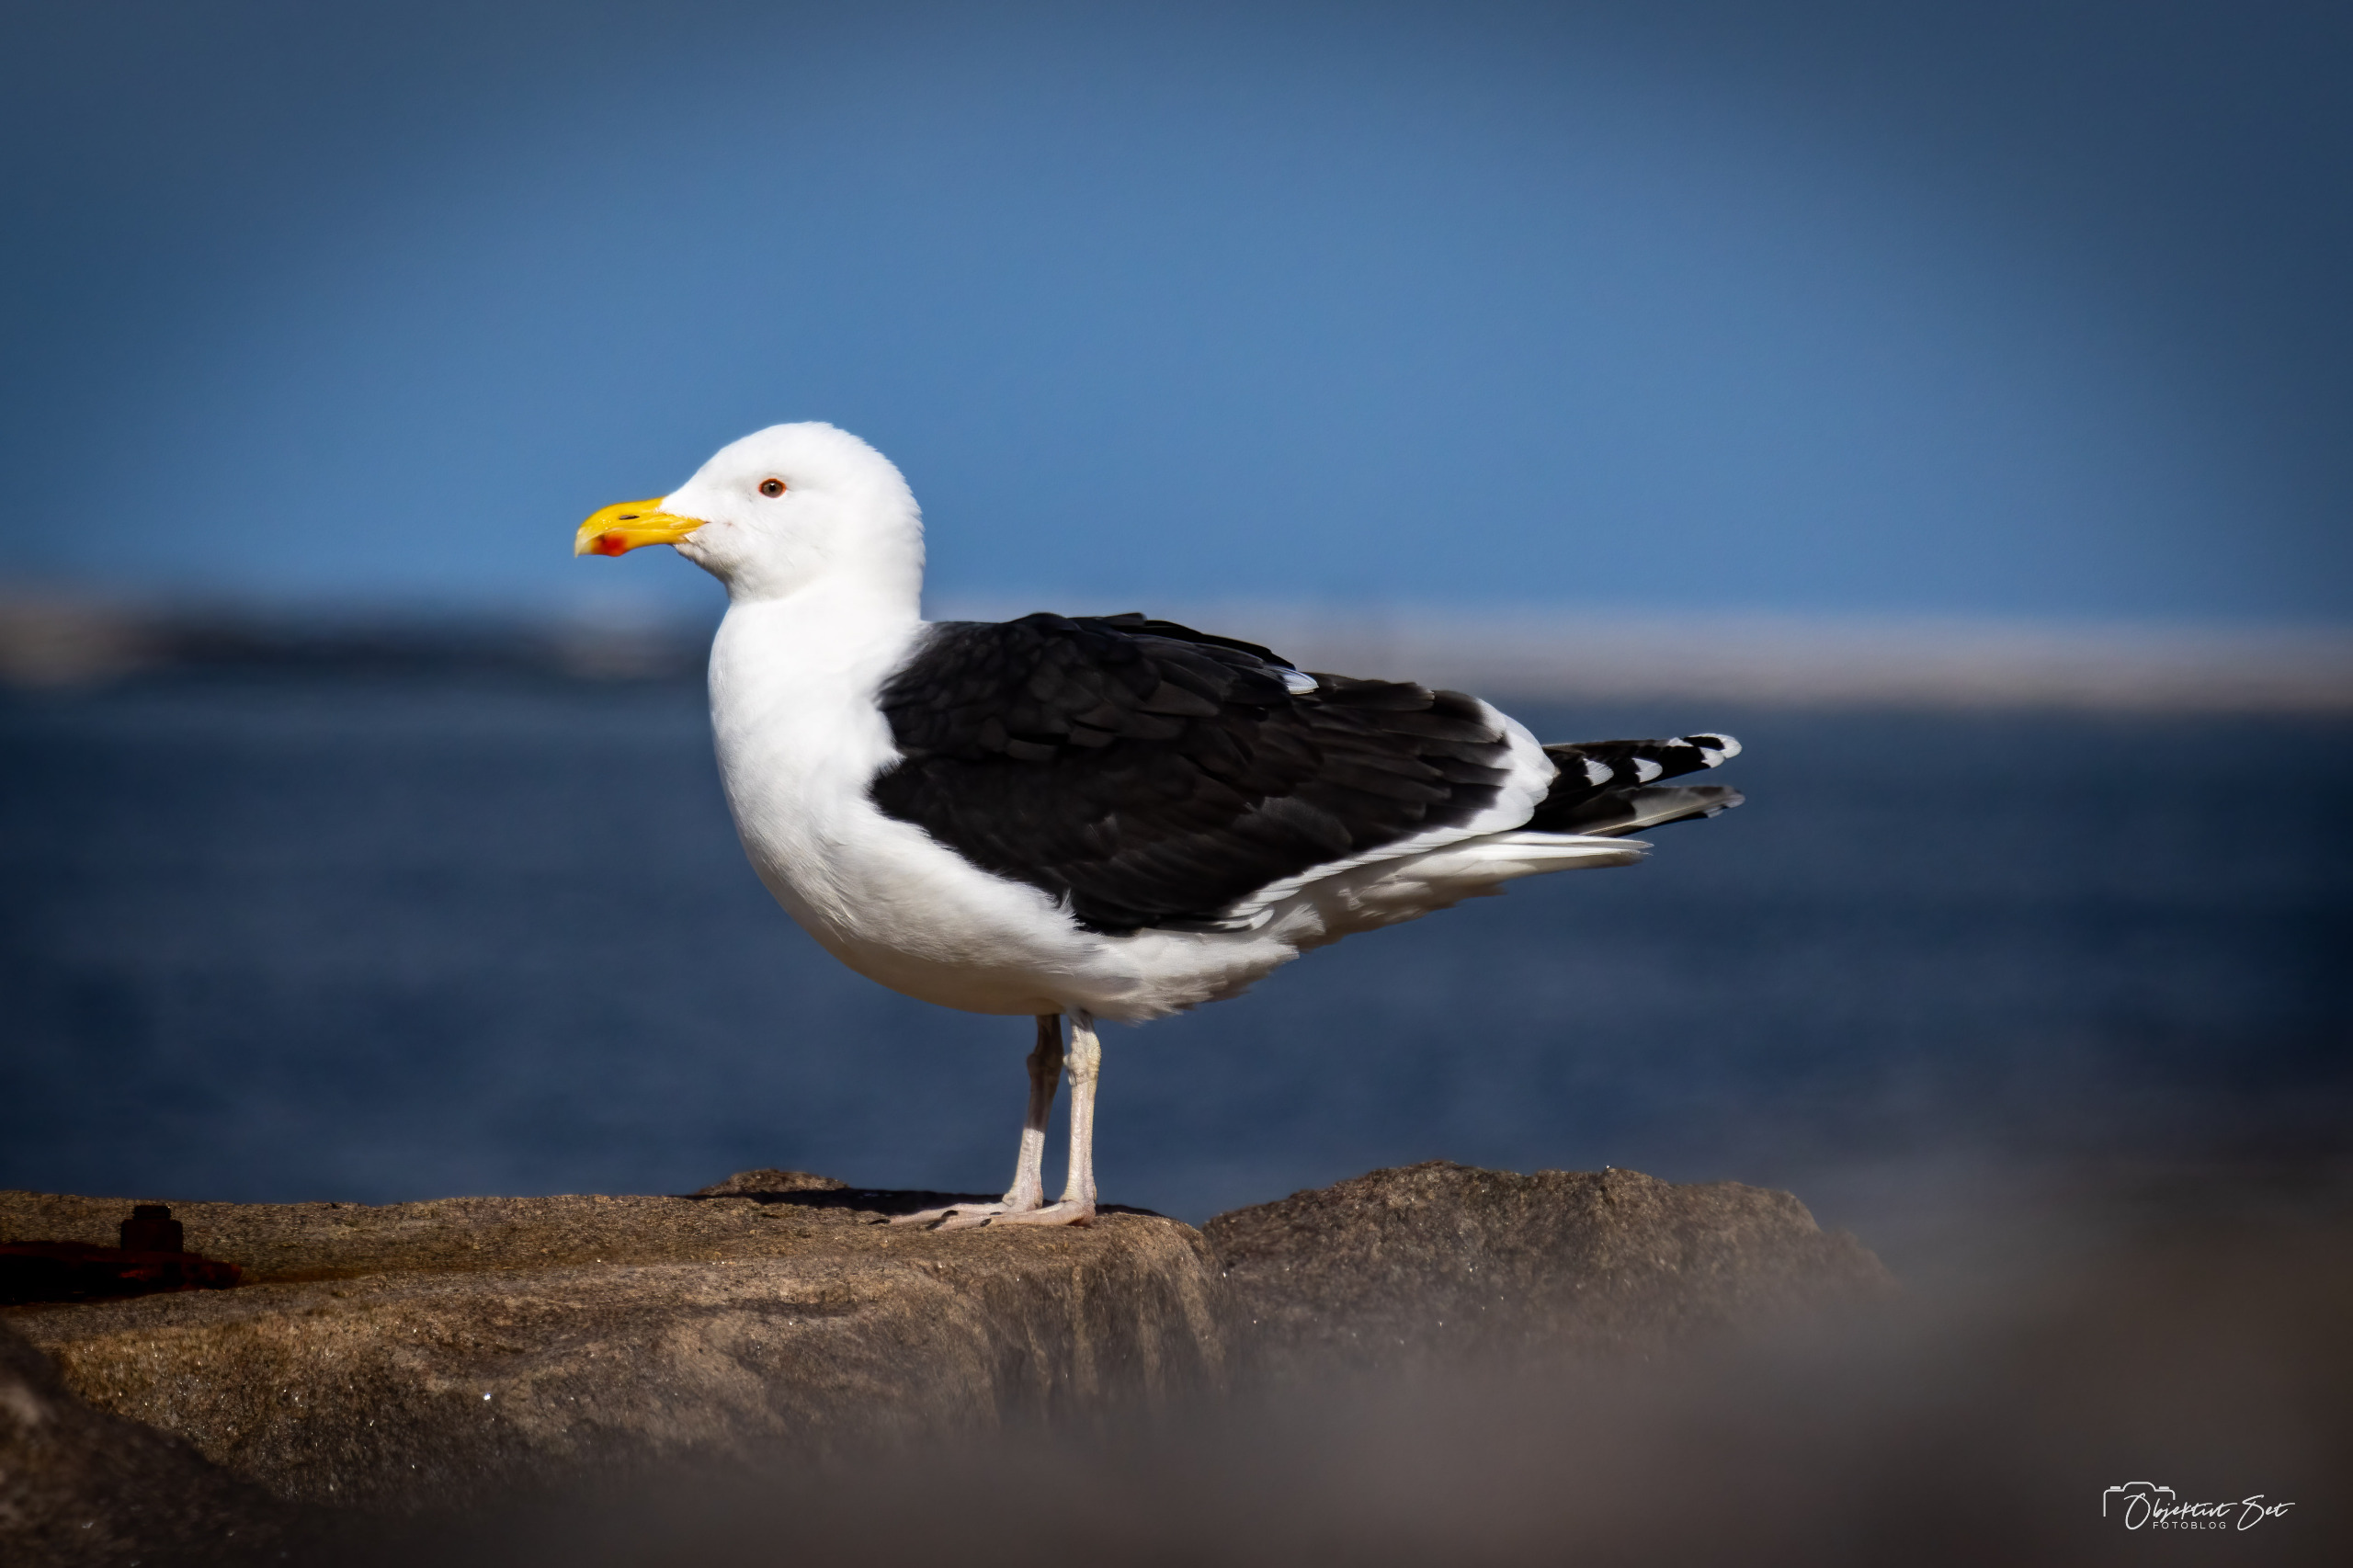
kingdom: Animalia
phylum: Chordata
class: Aves
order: Charadriiformes
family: Laridae
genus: Larus
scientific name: Larus marinus
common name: Svartbag
